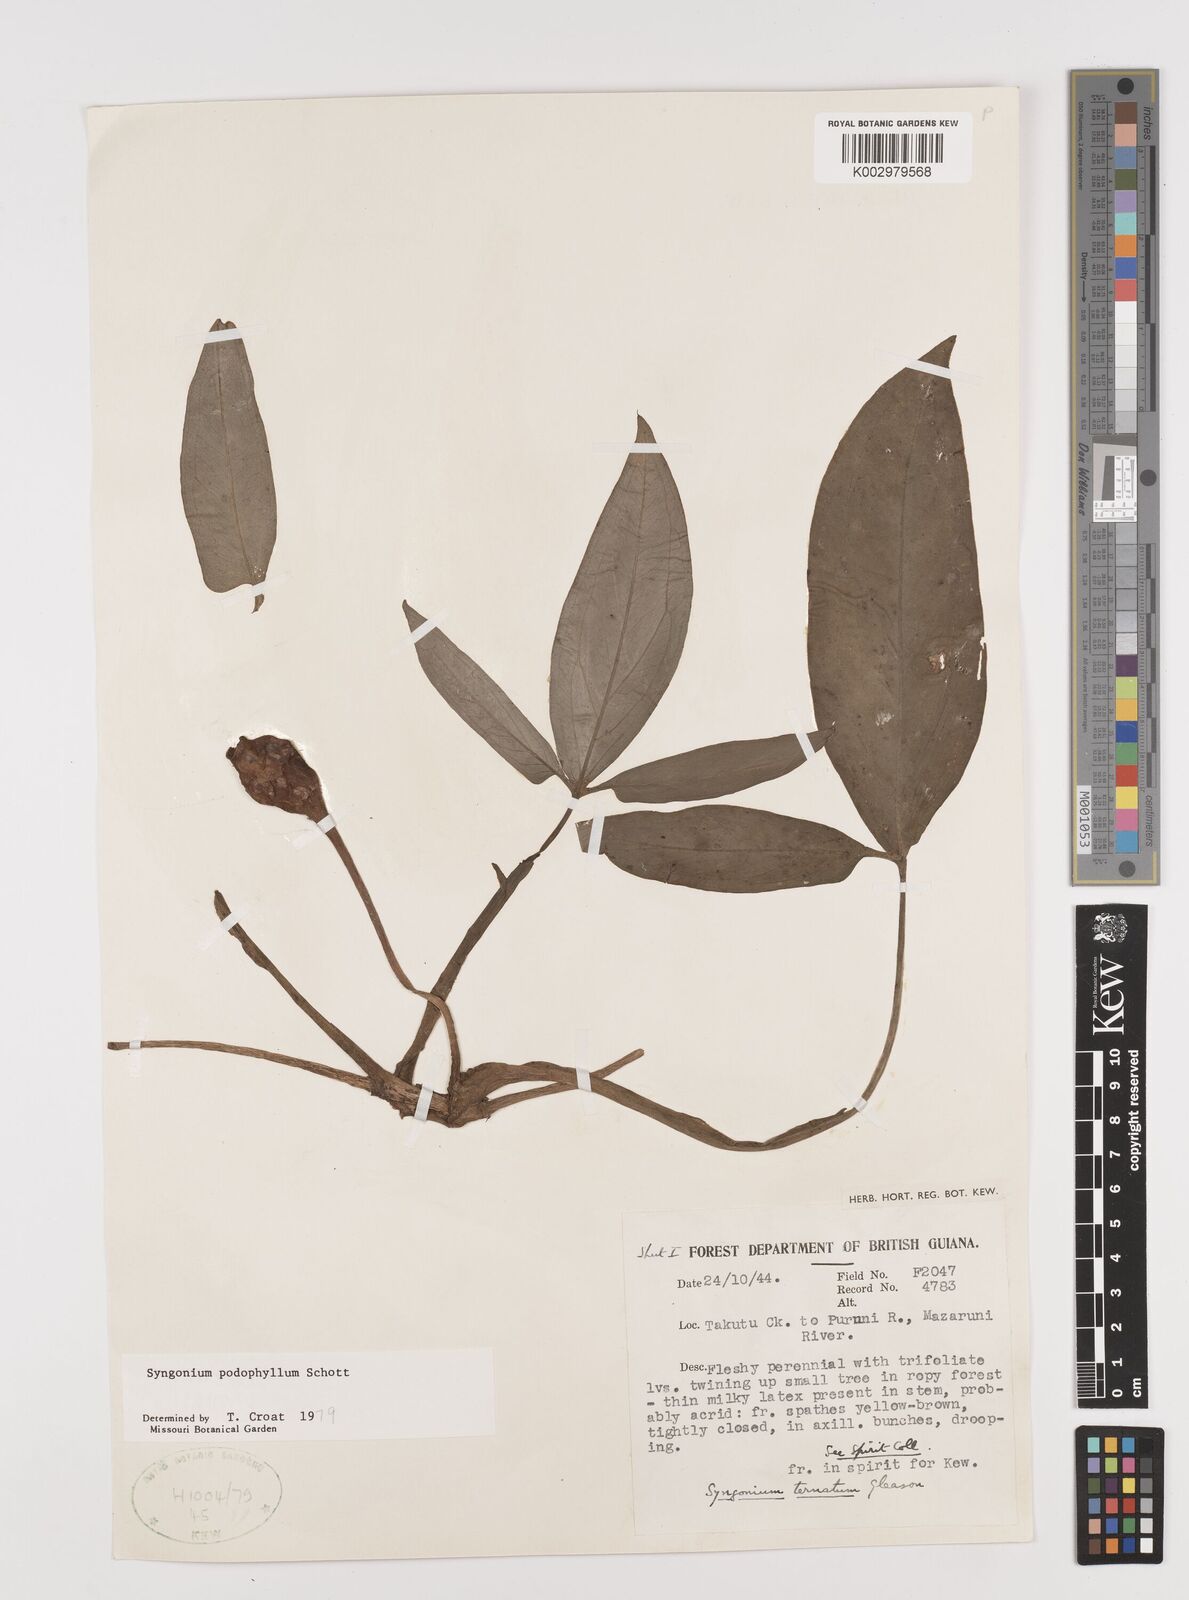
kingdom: Plantae
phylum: Tracheophyta
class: Liliopsida
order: Alismatales
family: Araceae
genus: Syngonium
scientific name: Syngonium podophyllum
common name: American evergreen
